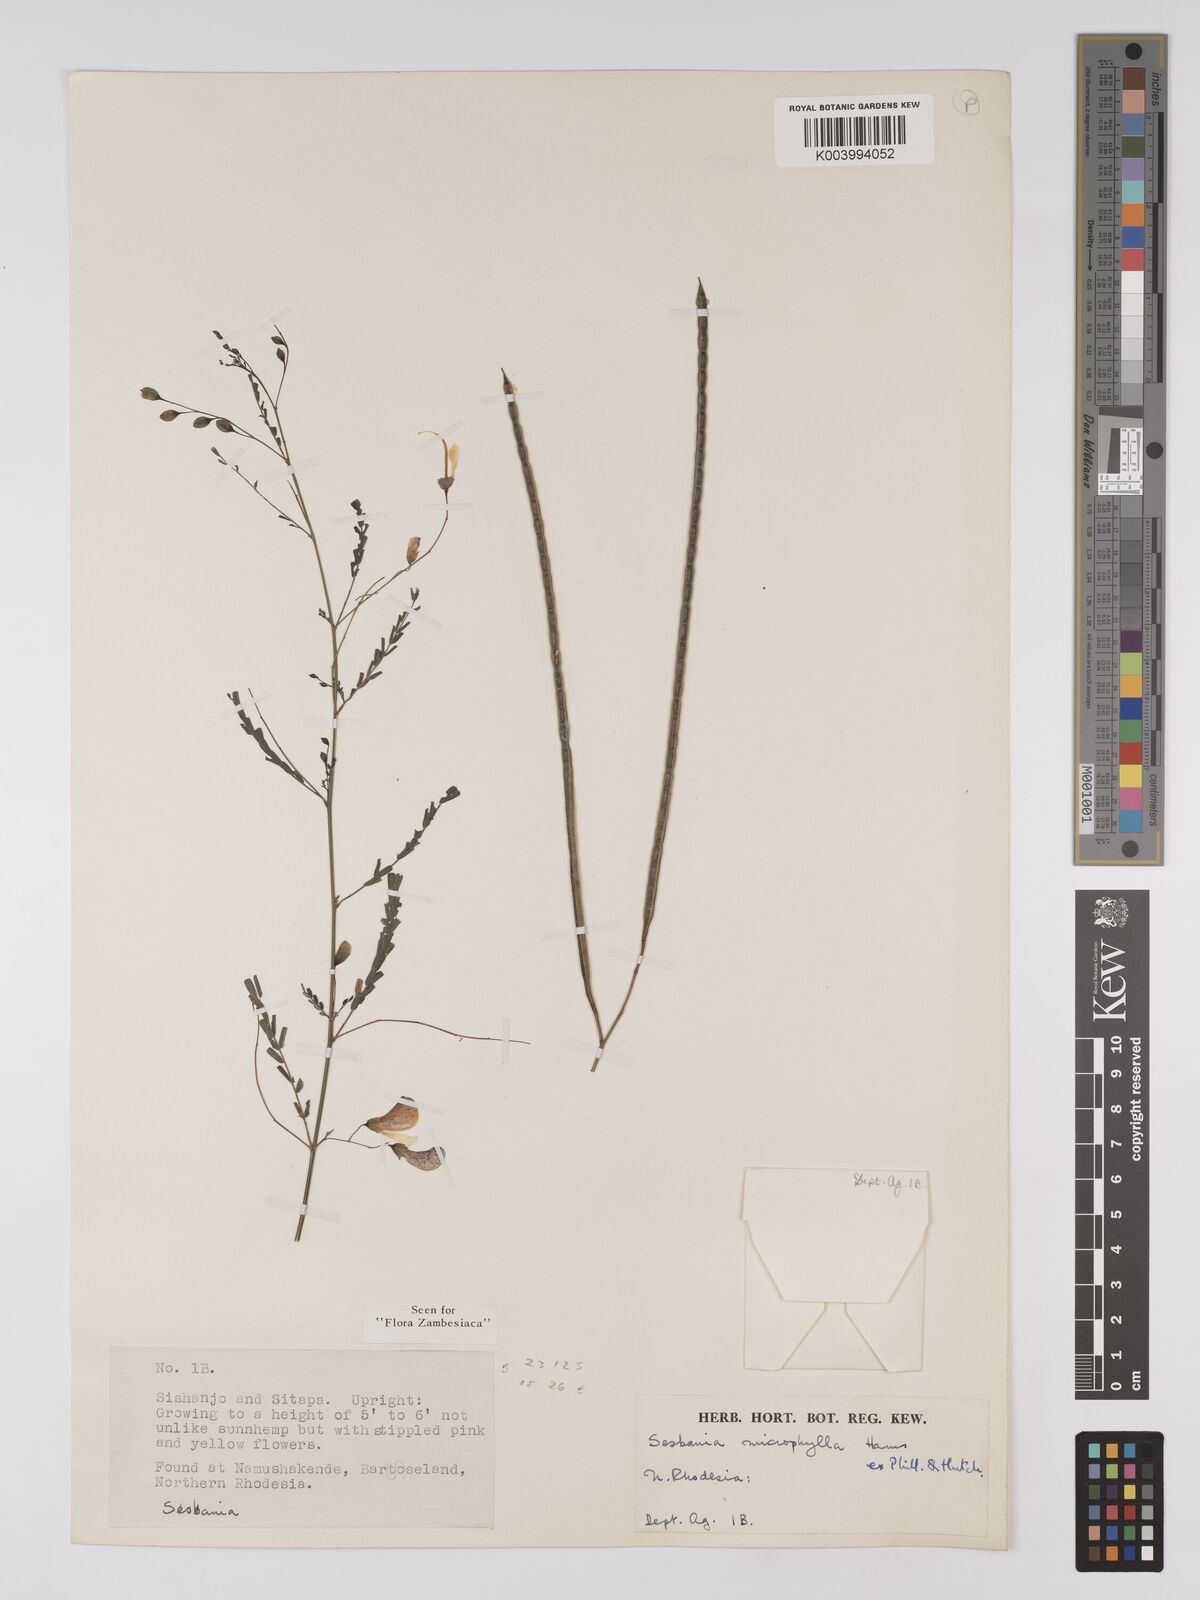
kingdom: Plantae
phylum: Tracheophyta
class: Magnoliopsida
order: Fabales
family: Fabaceae
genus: Sesbania
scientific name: Sesbania microphylla
